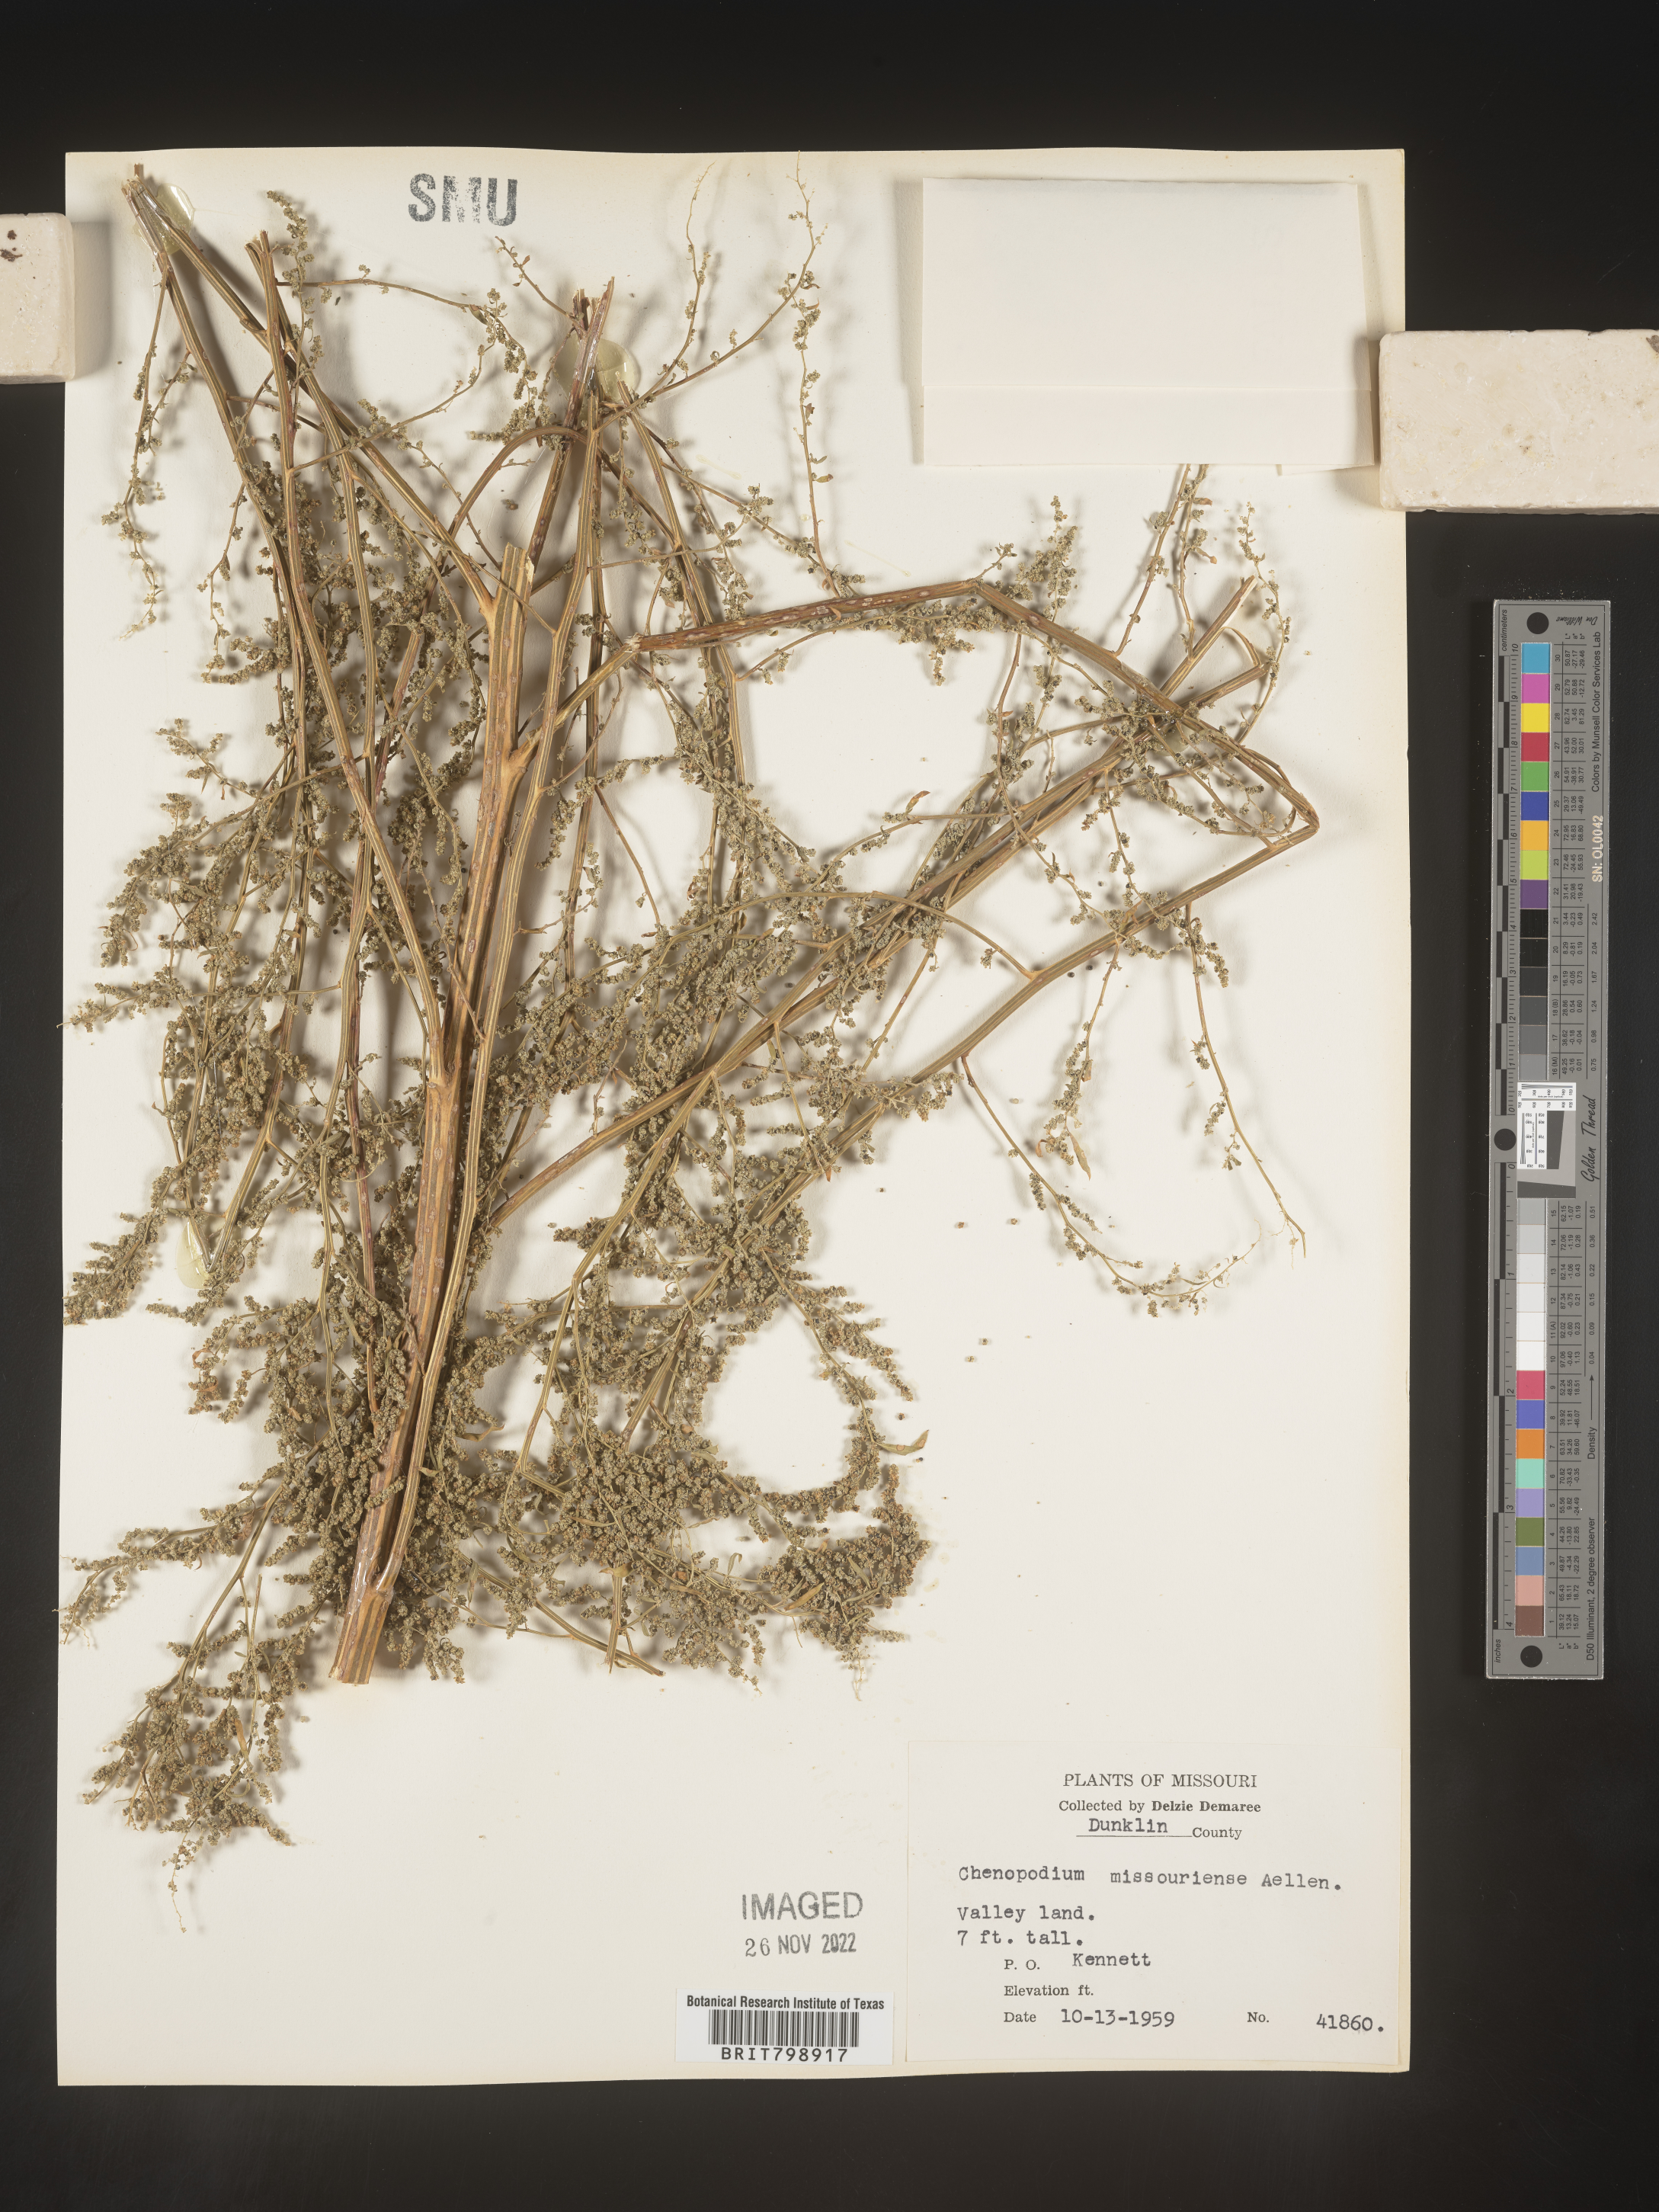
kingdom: Plantae
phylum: Tracheophyta
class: Magnoliopsida
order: Caryophyllales
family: Amaranthaceae
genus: Chenopodium
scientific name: Chenopodium album
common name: Fat-hen
